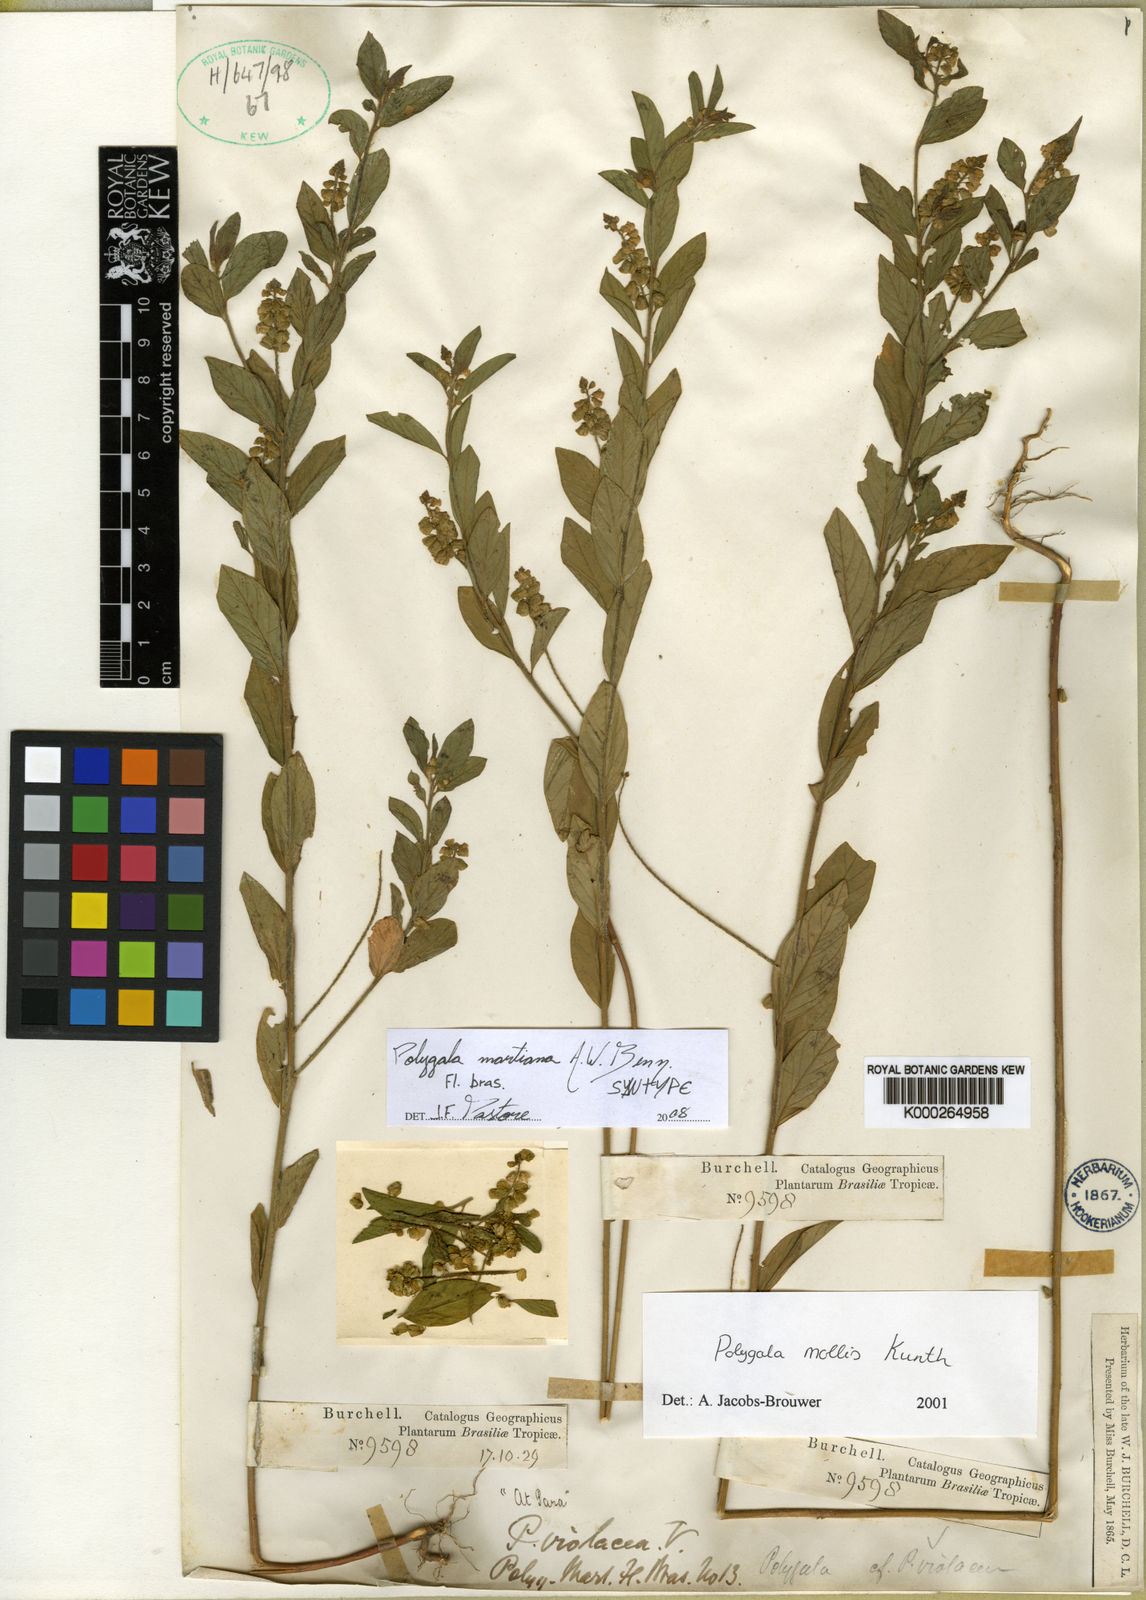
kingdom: Plantae
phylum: Tracheophyta
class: Magnoliopsida
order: Fabales
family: Polygalaceae
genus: Asemeia
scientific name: Asemeia martiana
